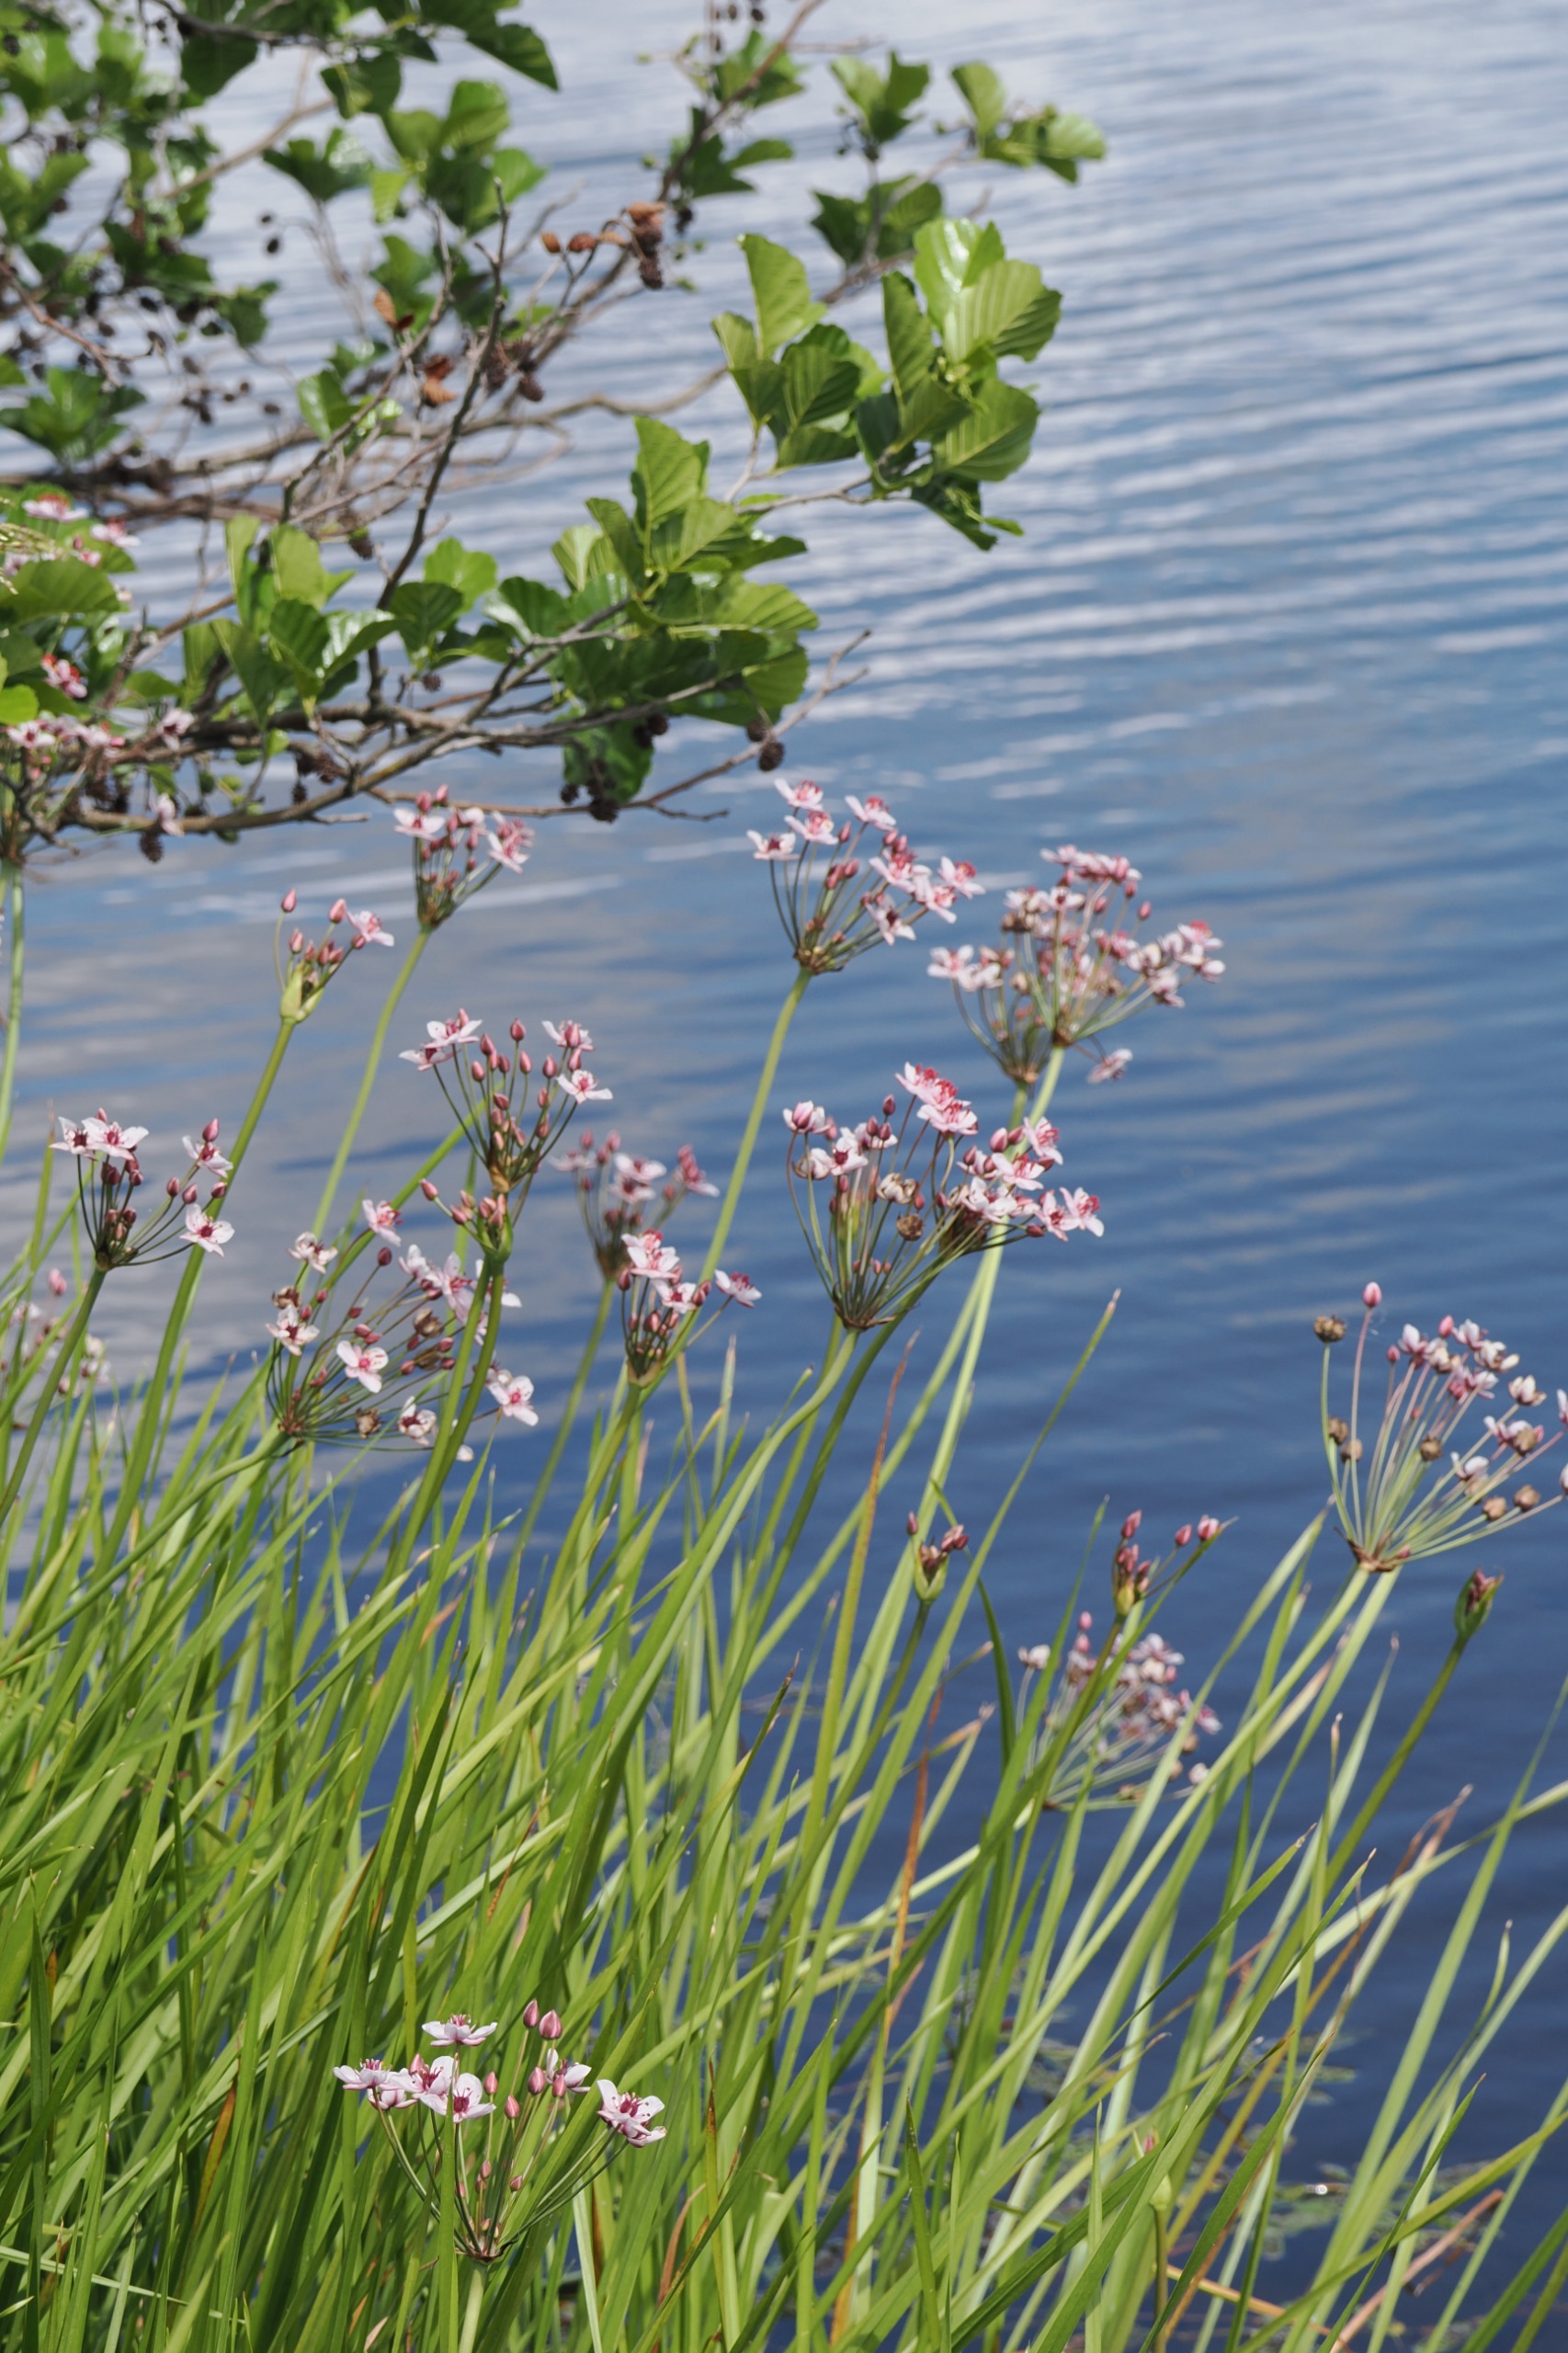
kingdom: Plantae
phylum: Tracheophyta
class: Liliopsida
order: Alismatales
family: Butomaceae
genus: Butomus
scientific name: Butomus umbellatus
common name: Brudelys
